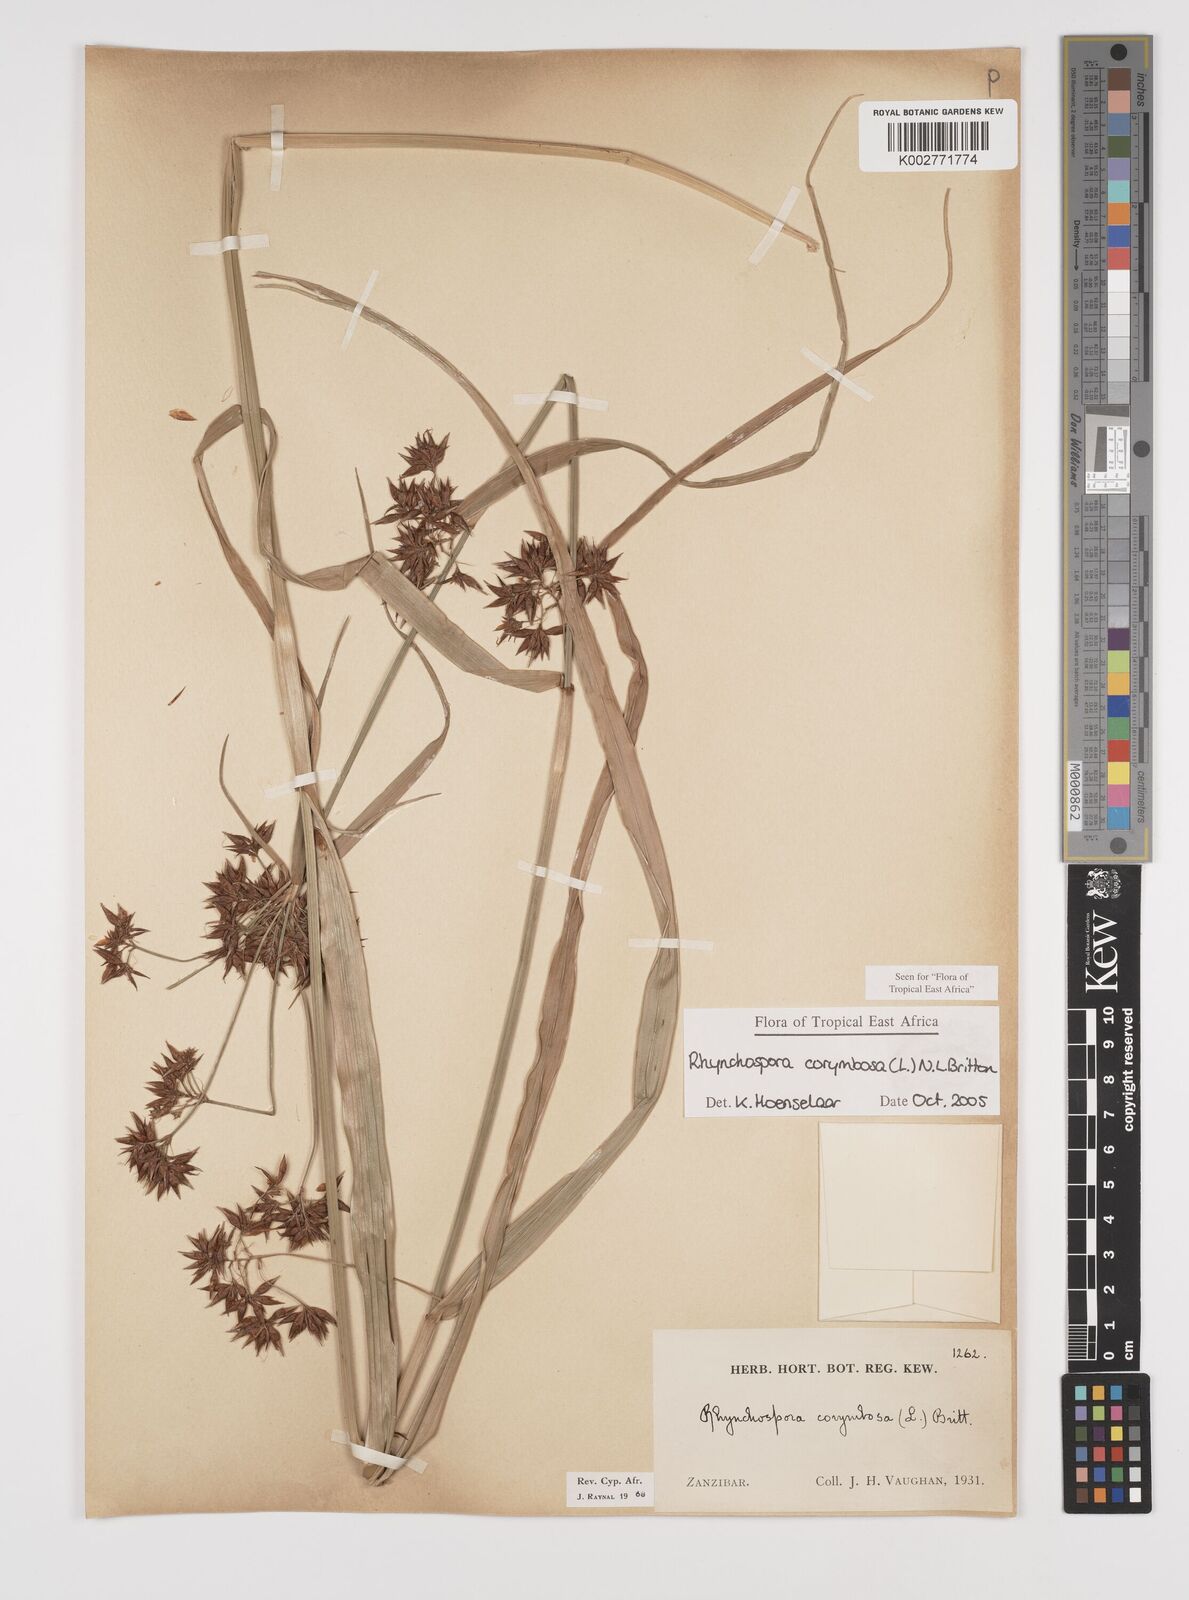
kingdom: Plantae
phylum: Tracheophyta
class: Liliopsida
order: Poales
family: Cyperaceae
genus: Rhynchospora
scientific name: Rhynchospora corymbosa
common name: Golden beak sedge
